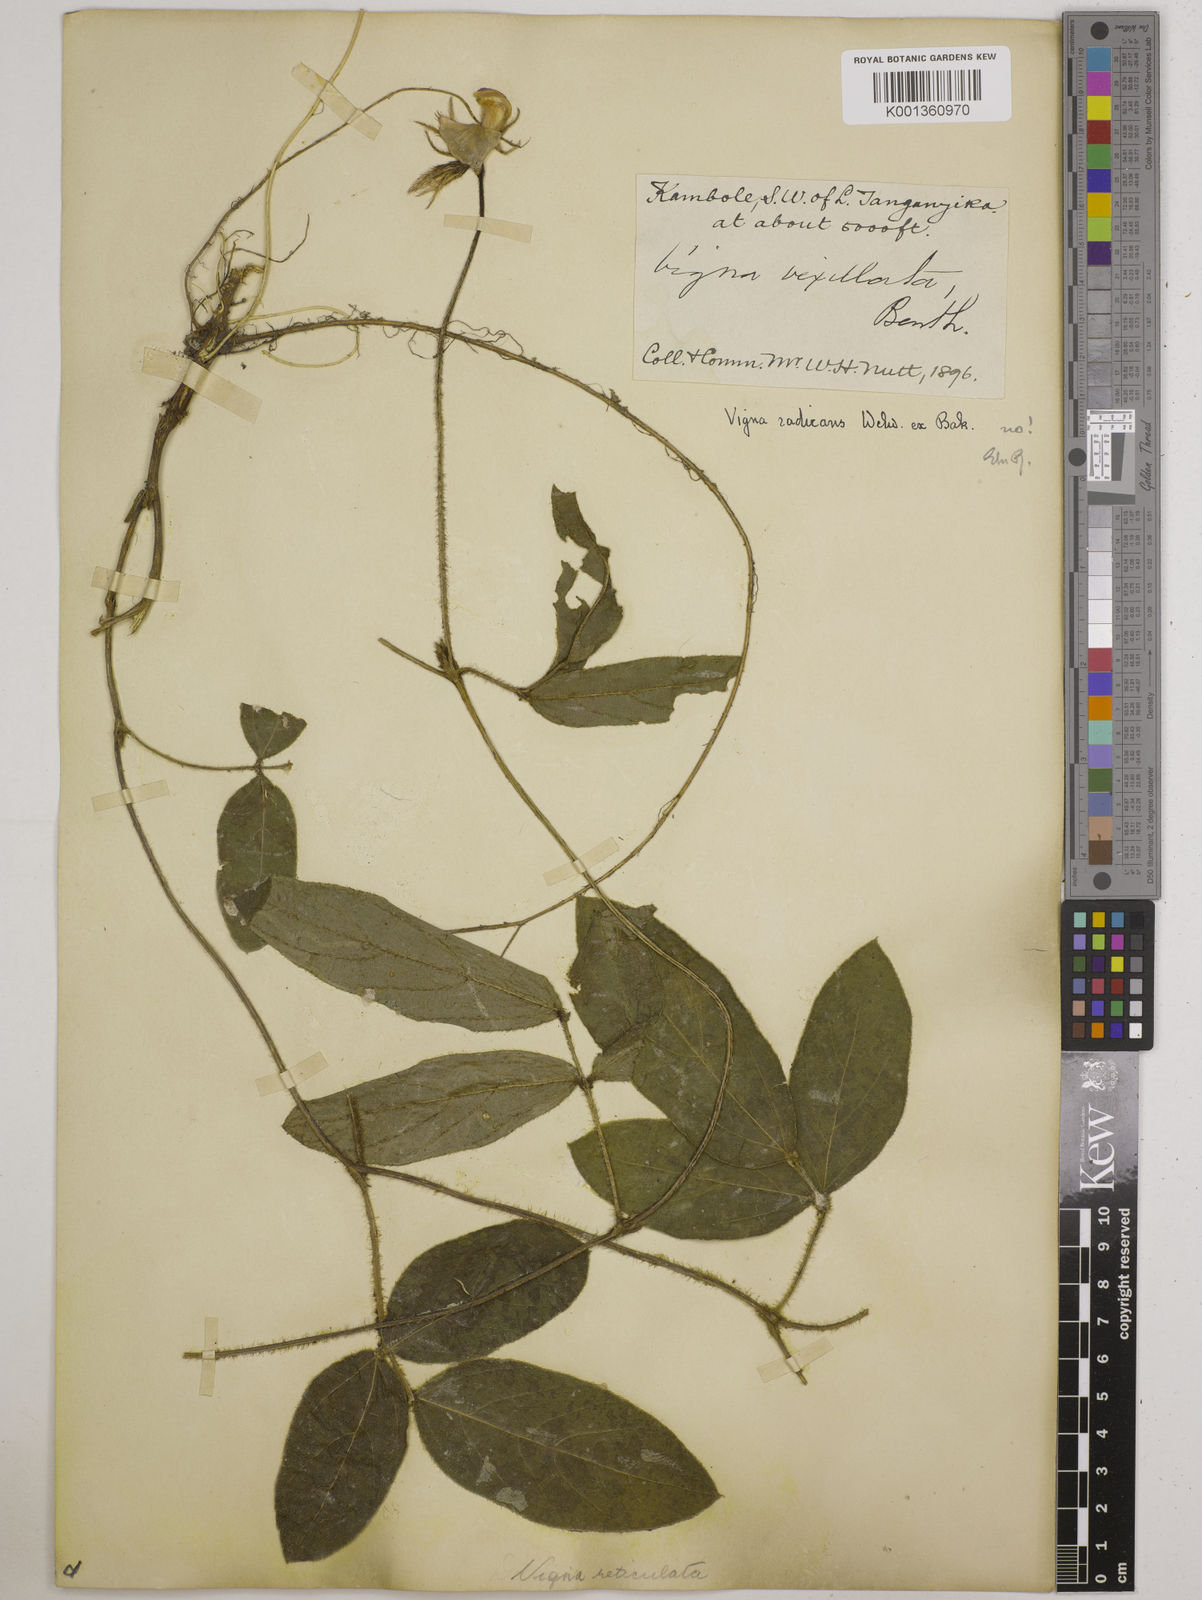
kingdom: Plantae
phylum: Tracheophyta
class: Magnoliopsida
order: Fabales
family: Fabaceae
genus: Vigna
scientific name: Vigna reticulata
